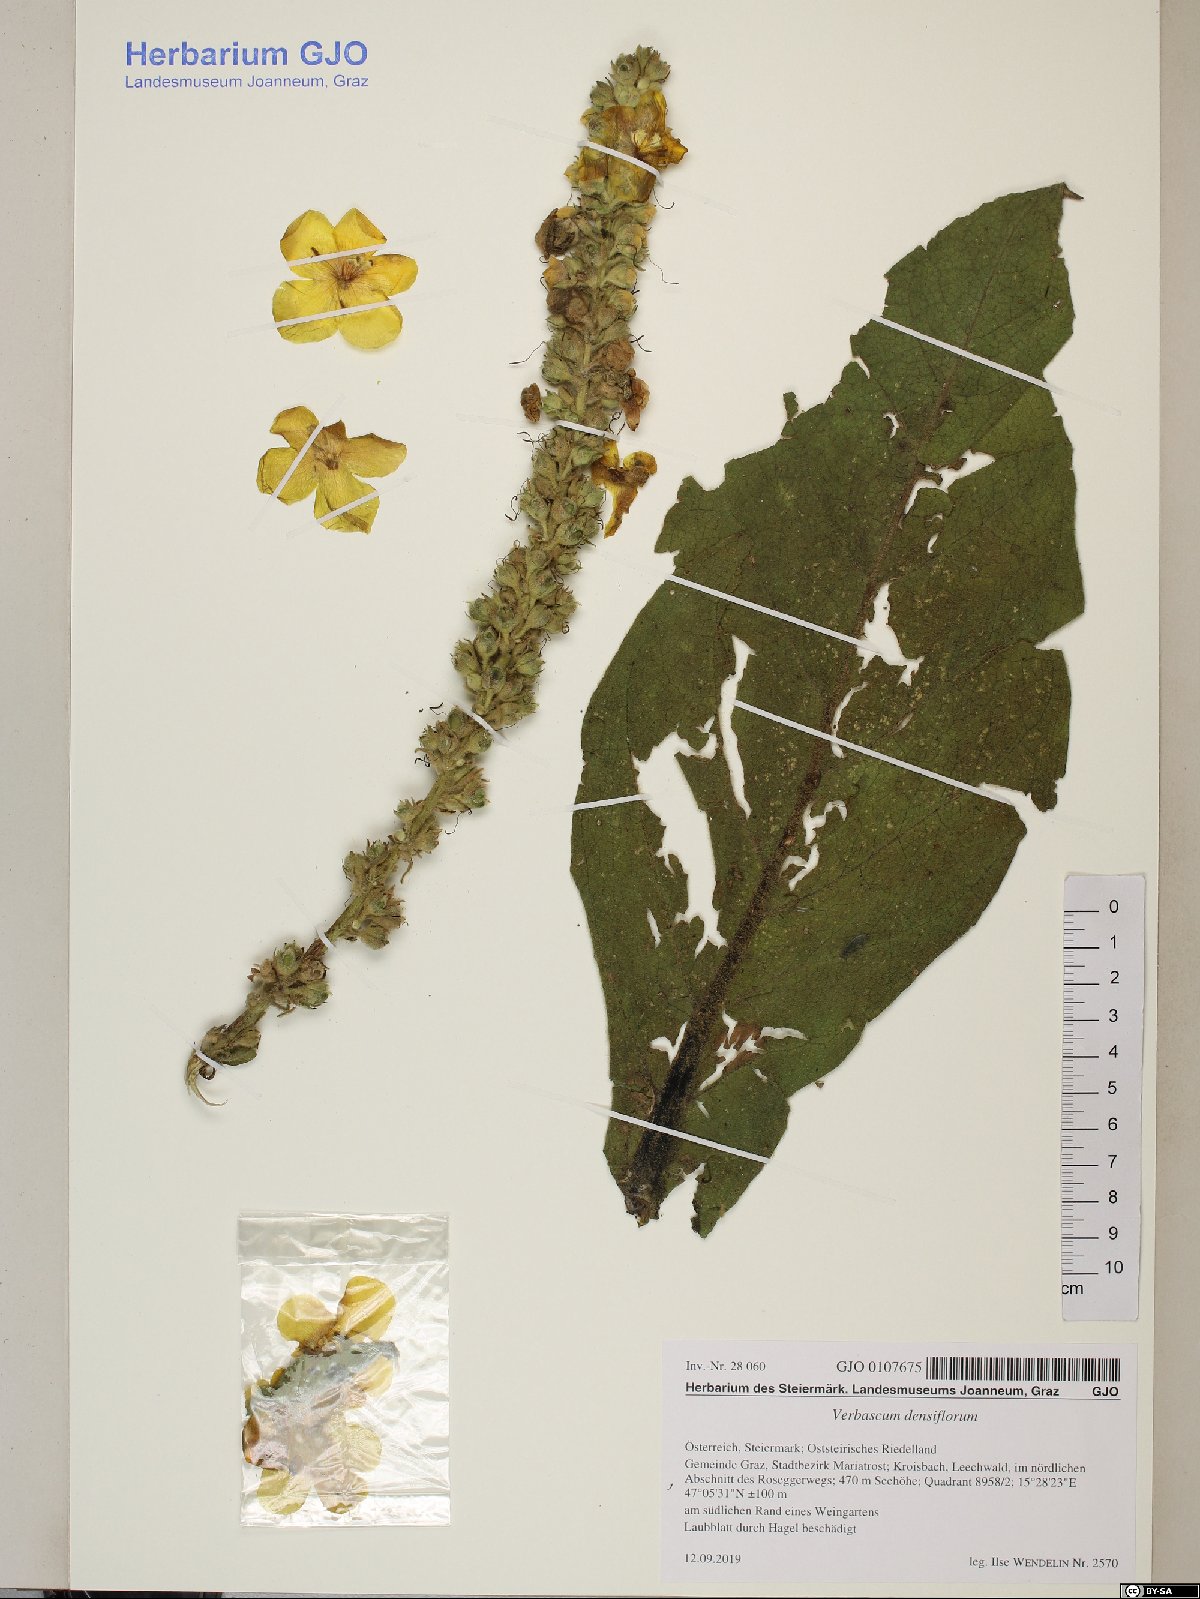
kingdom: Plantae
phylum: Tracheophyta
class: Magnoliopsida
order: Lamiales
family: Scrophulariaceae
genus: Verbascum
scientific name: Verbascum densiflorum
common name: Dense-flowered mullein
